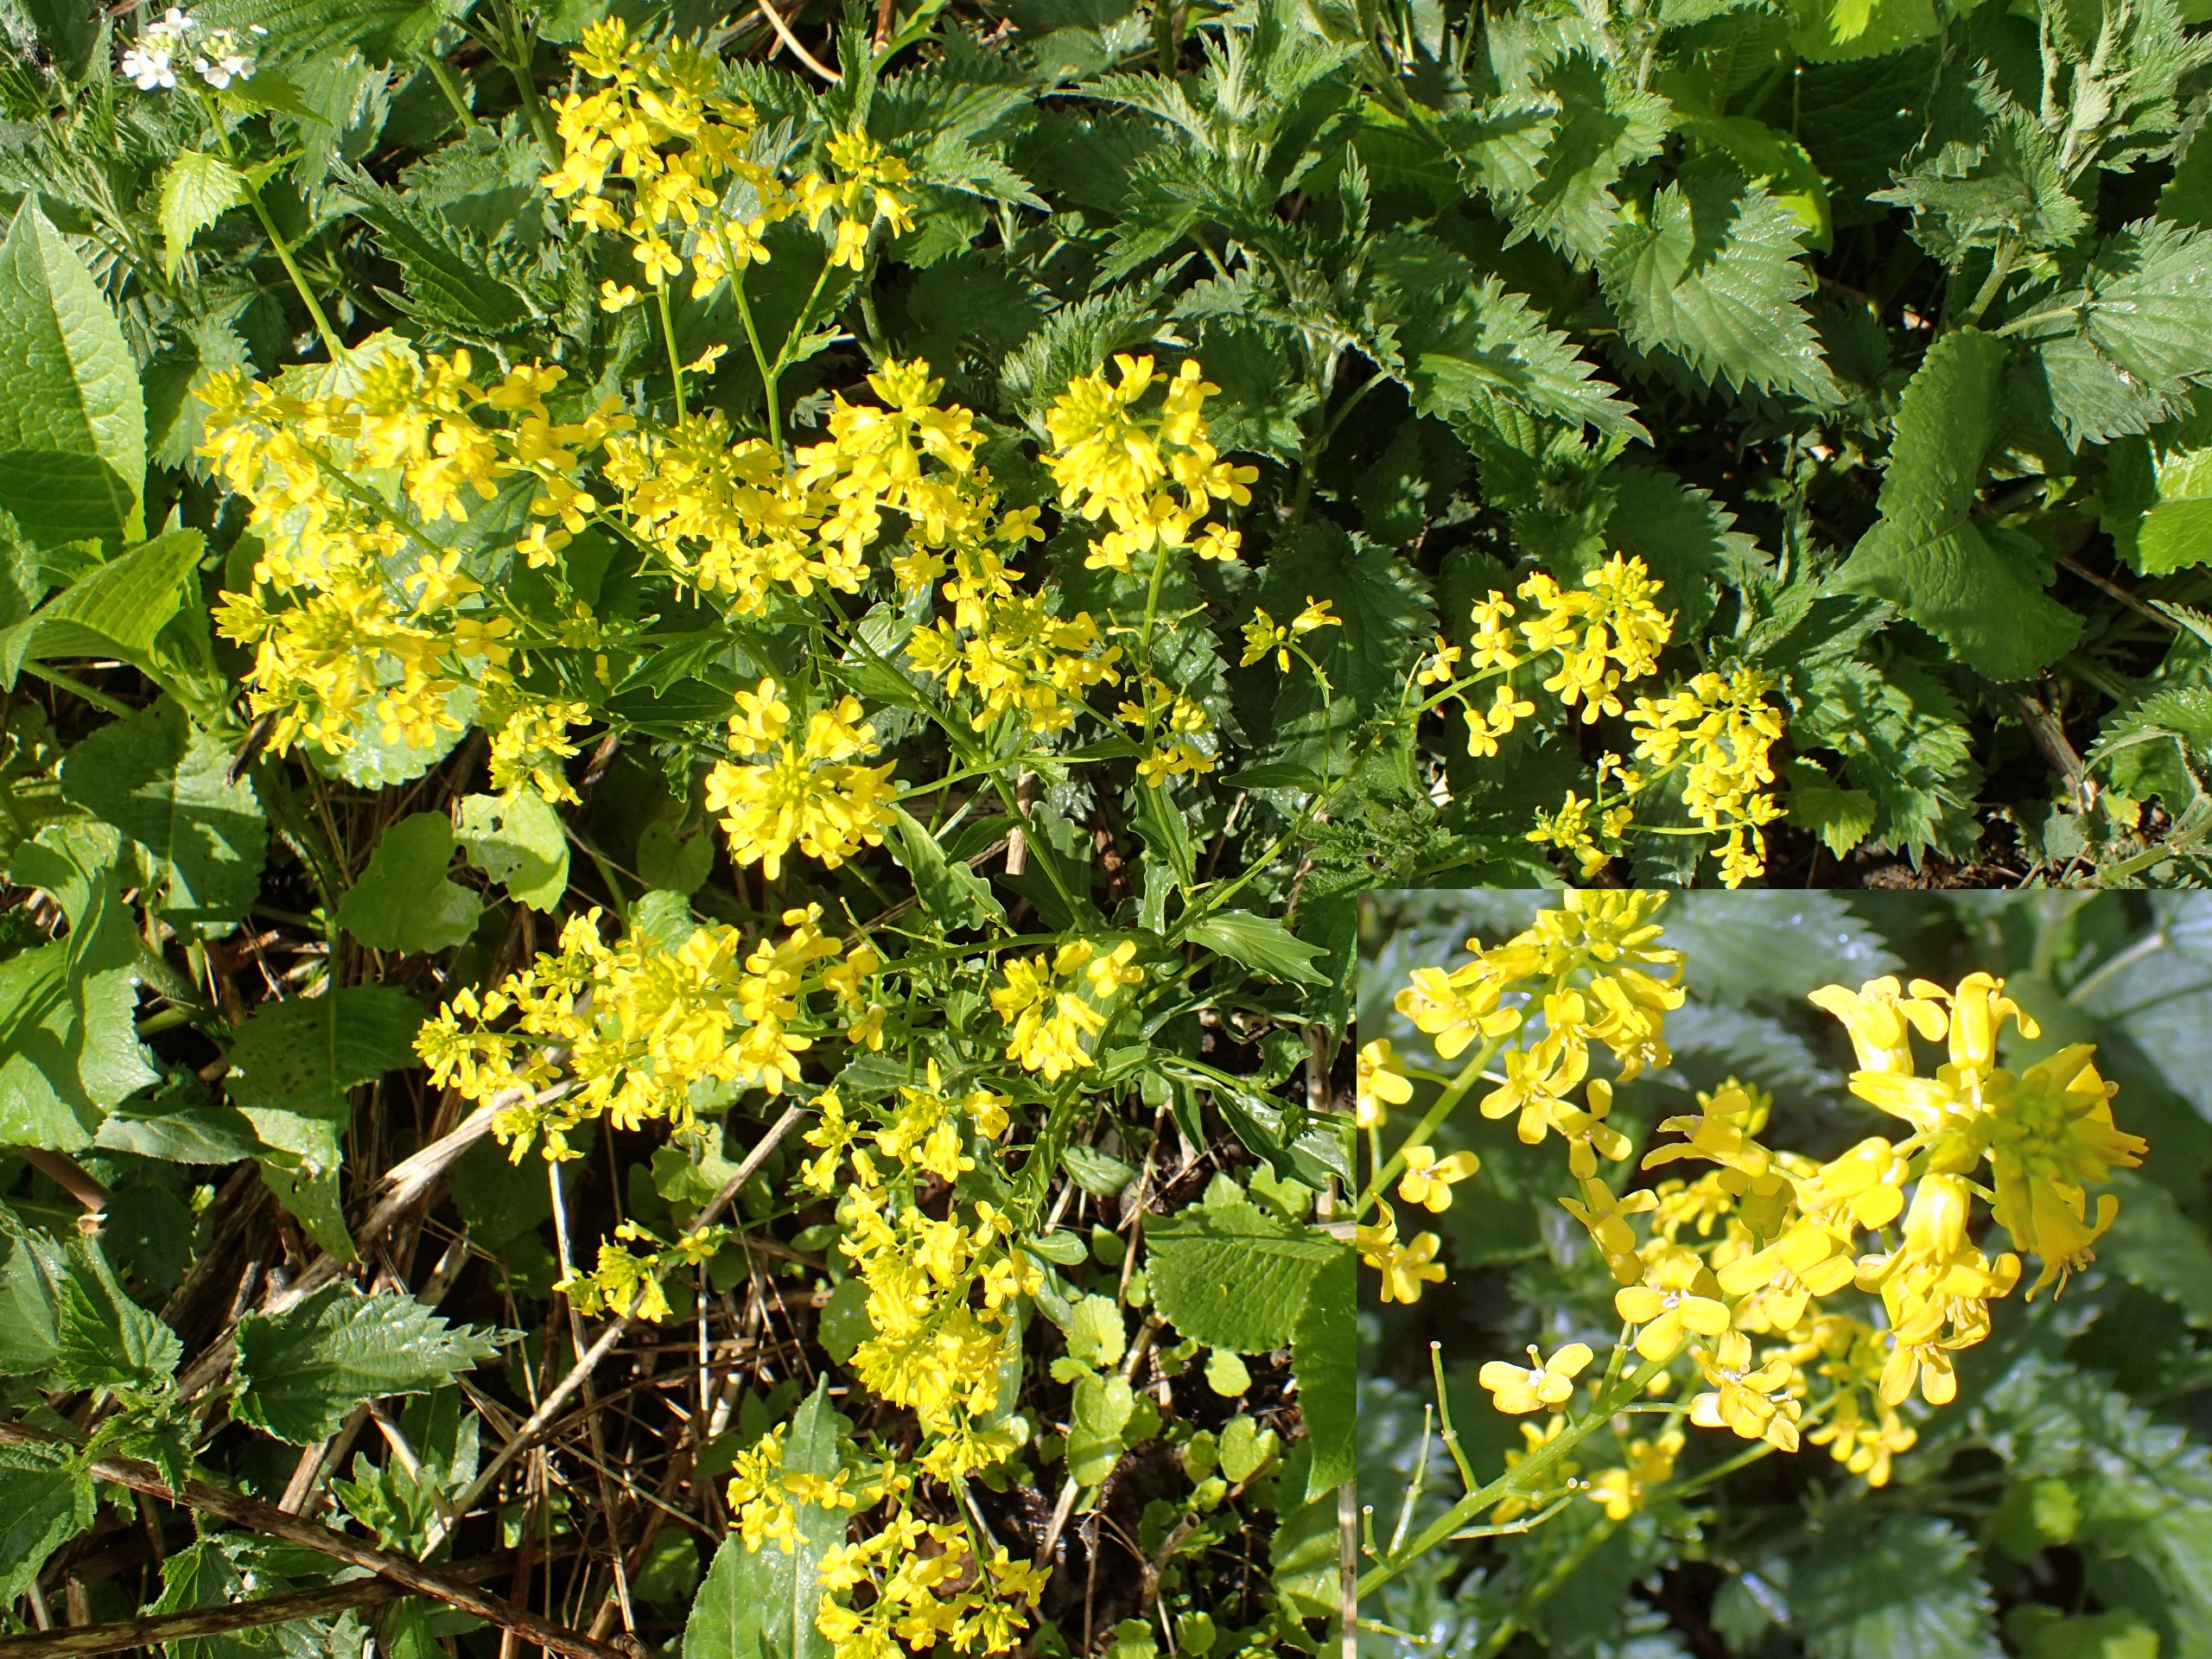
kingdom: Plantae
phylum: Tracheophyta
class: Magnoliopsida
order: Brassicales
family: Brassicaceae
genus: Barbarea
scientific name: Barbarea vulgaris
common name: Udspærret vinterkarse
